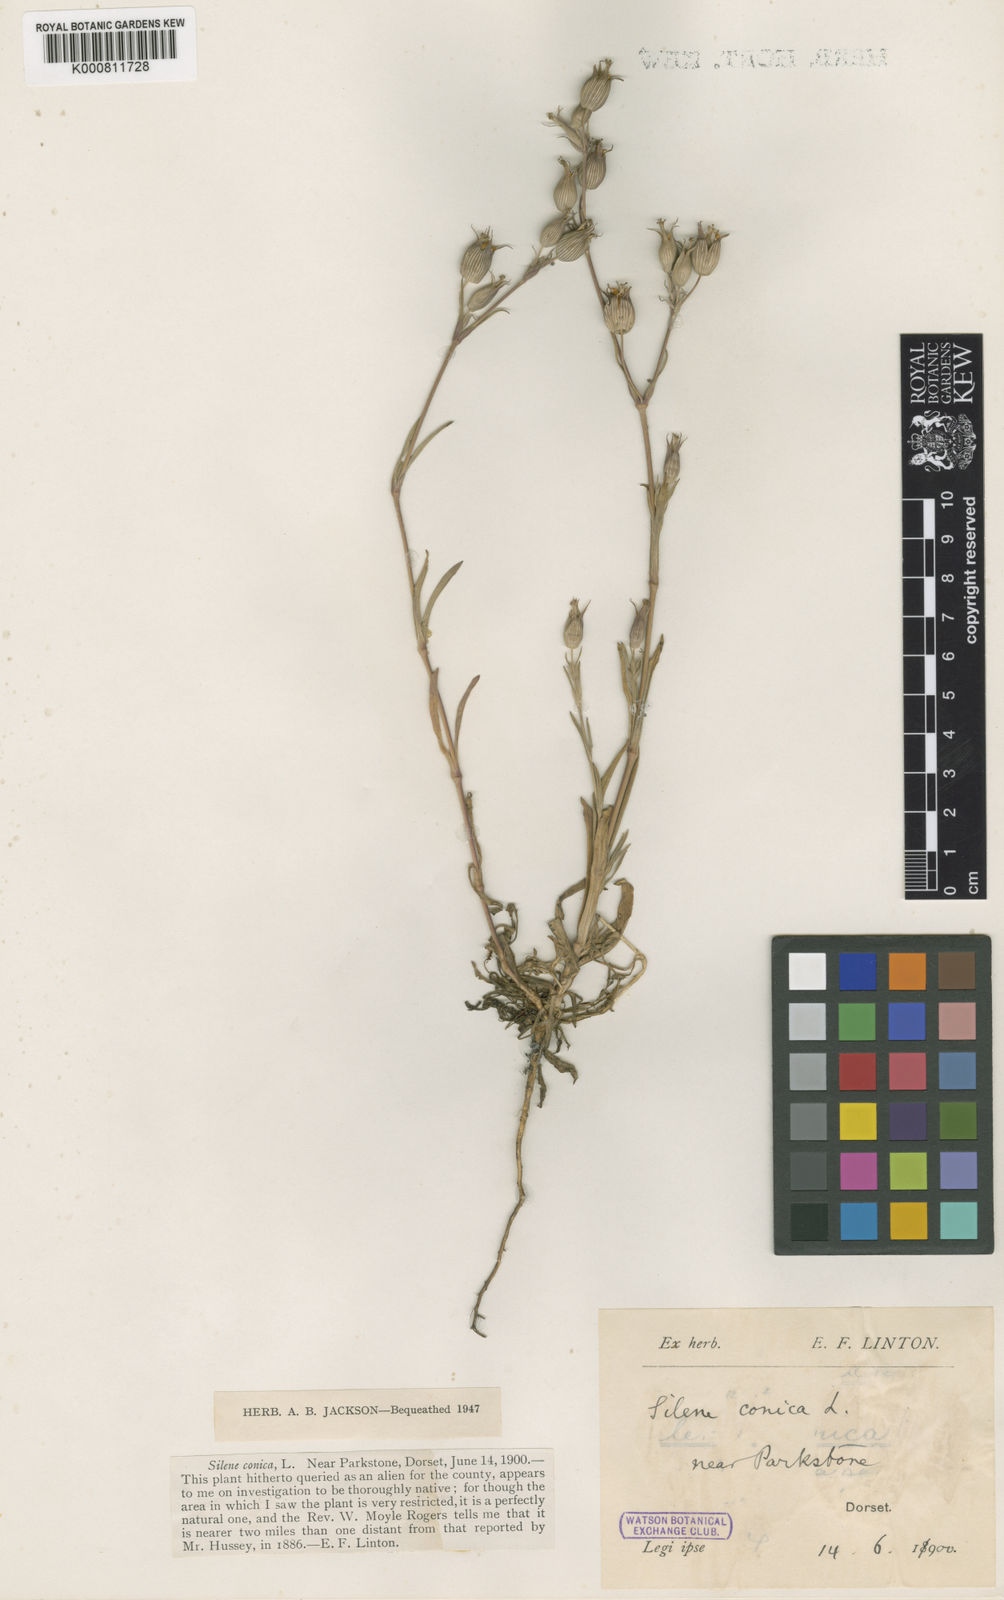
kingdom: Plantae
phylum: Tracheophyta
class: Magnoliopsida
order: Caryophyllales
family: Caryophyllaceae
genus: Silene
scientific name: Silene conica
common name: Sand catchfly
